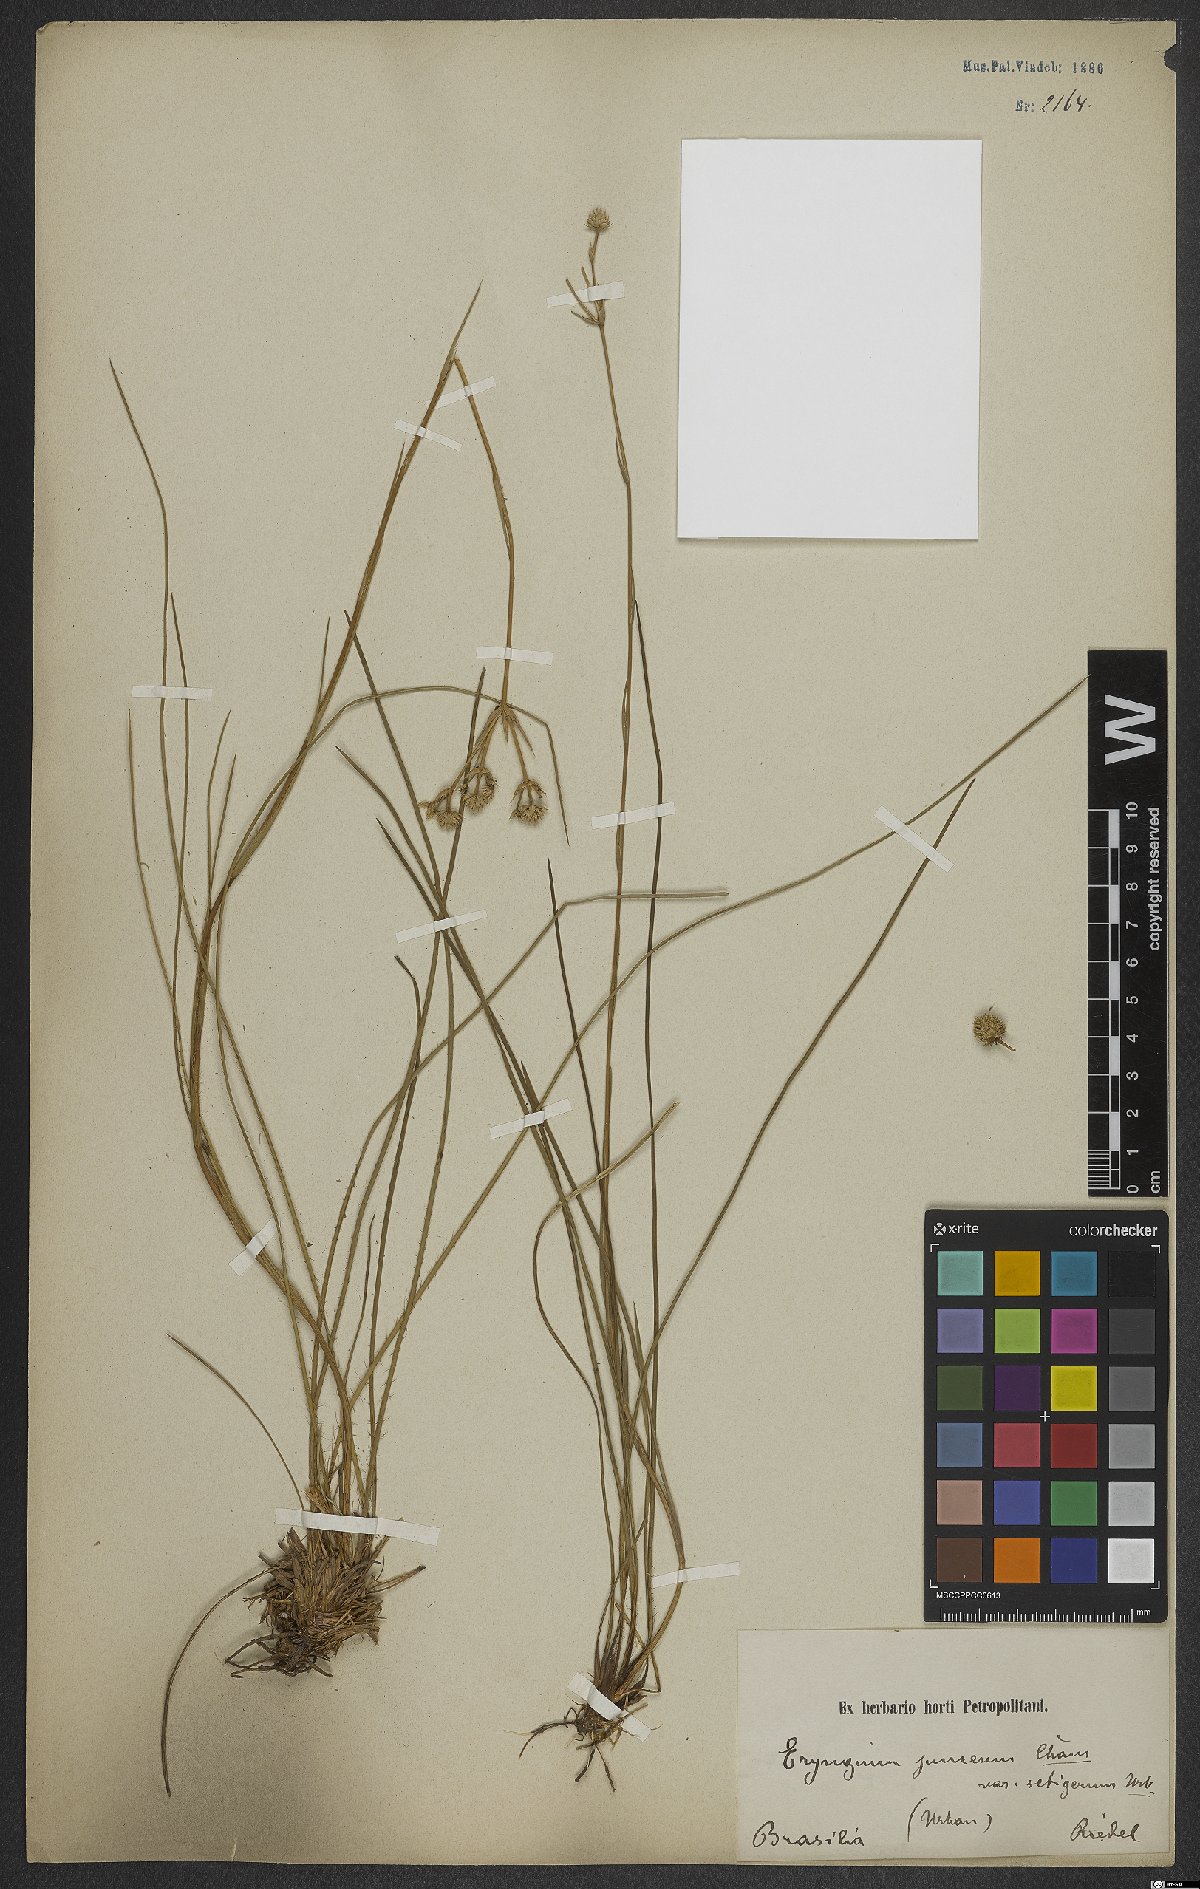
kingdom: Plantae
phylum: Tracheophyta
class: Magnoliopsida
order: Apiales
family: Apiaceae
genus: Eryngium
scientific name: Eryngium junceum
